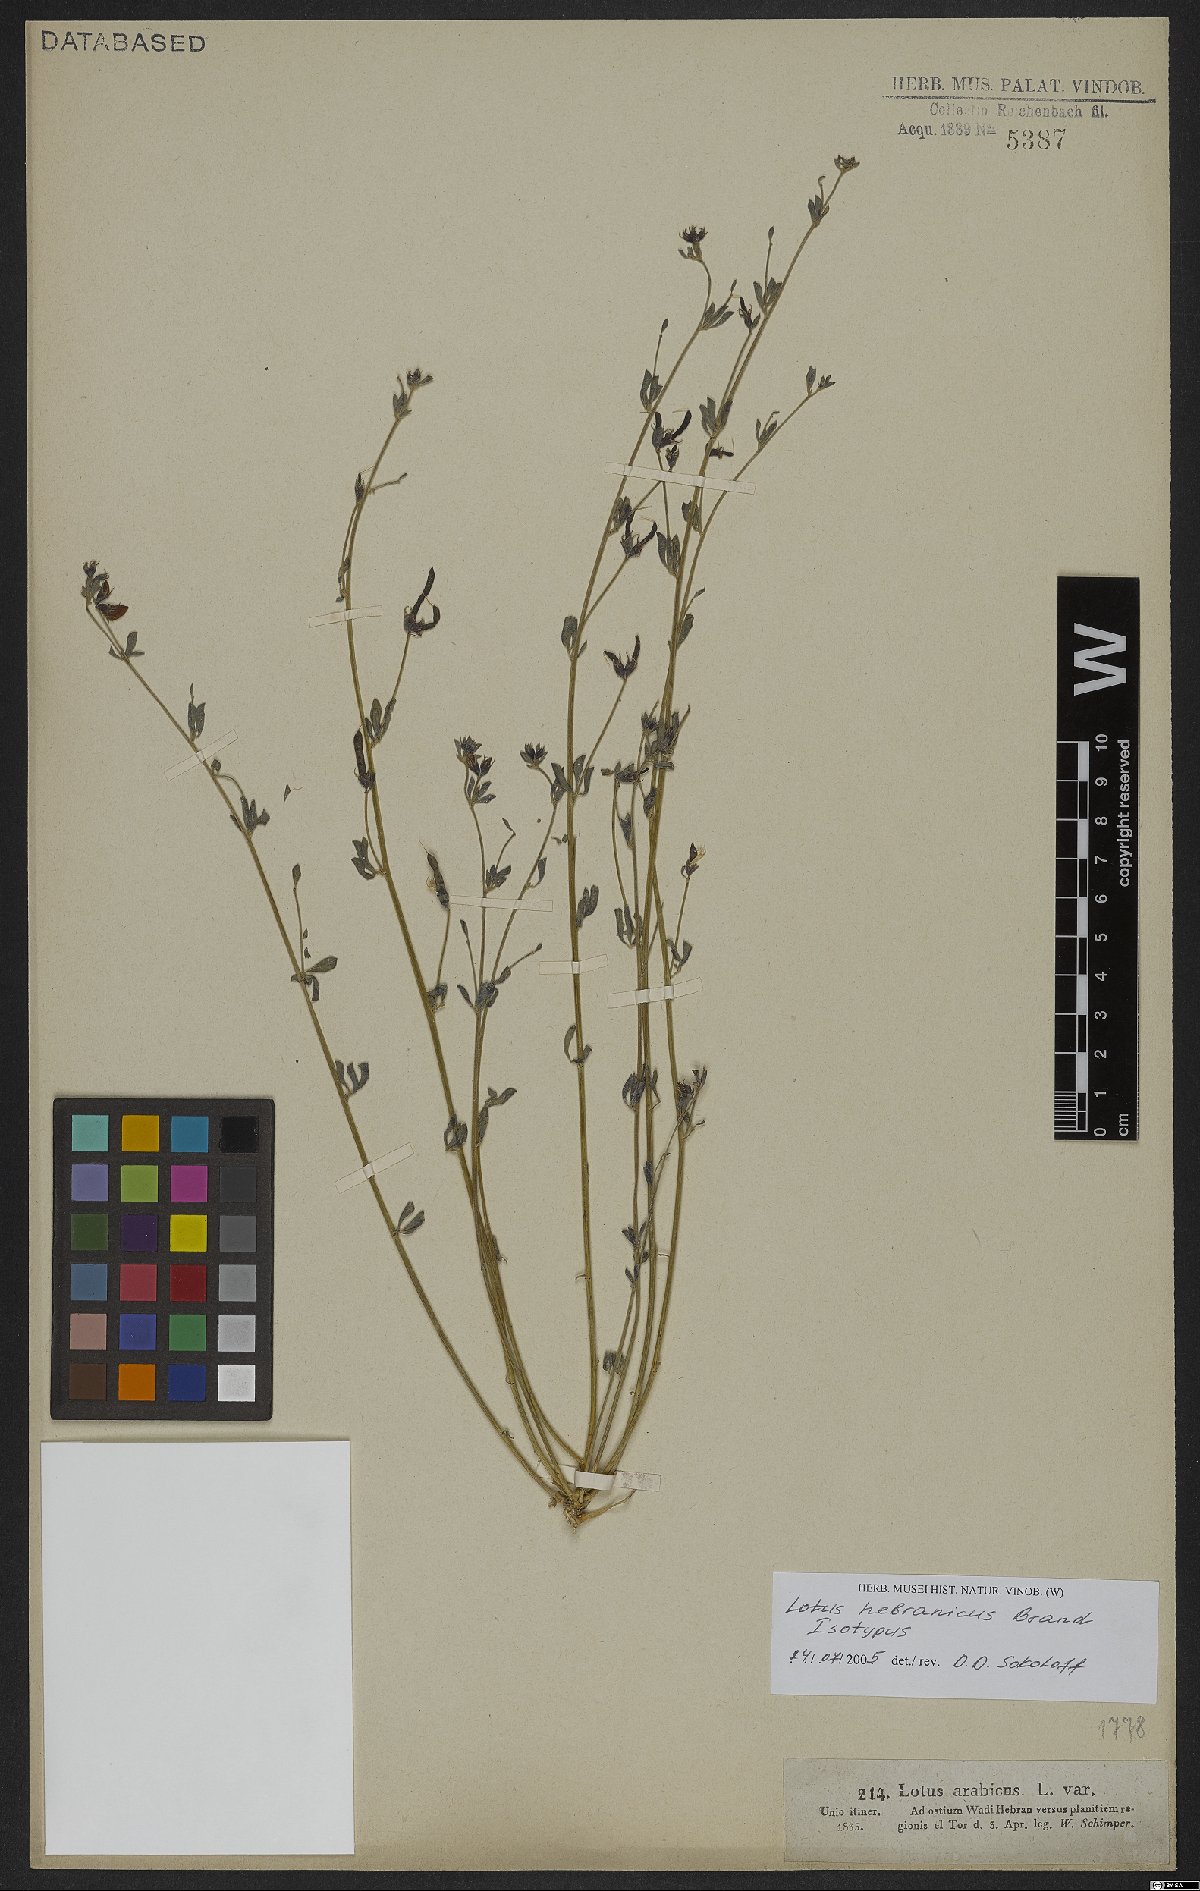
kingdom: Plantae
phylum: Tracheophyta
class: Magnoliopsida
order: Fabales
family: Fabaceae
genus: Lotus
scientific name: Lotus hebranicus
